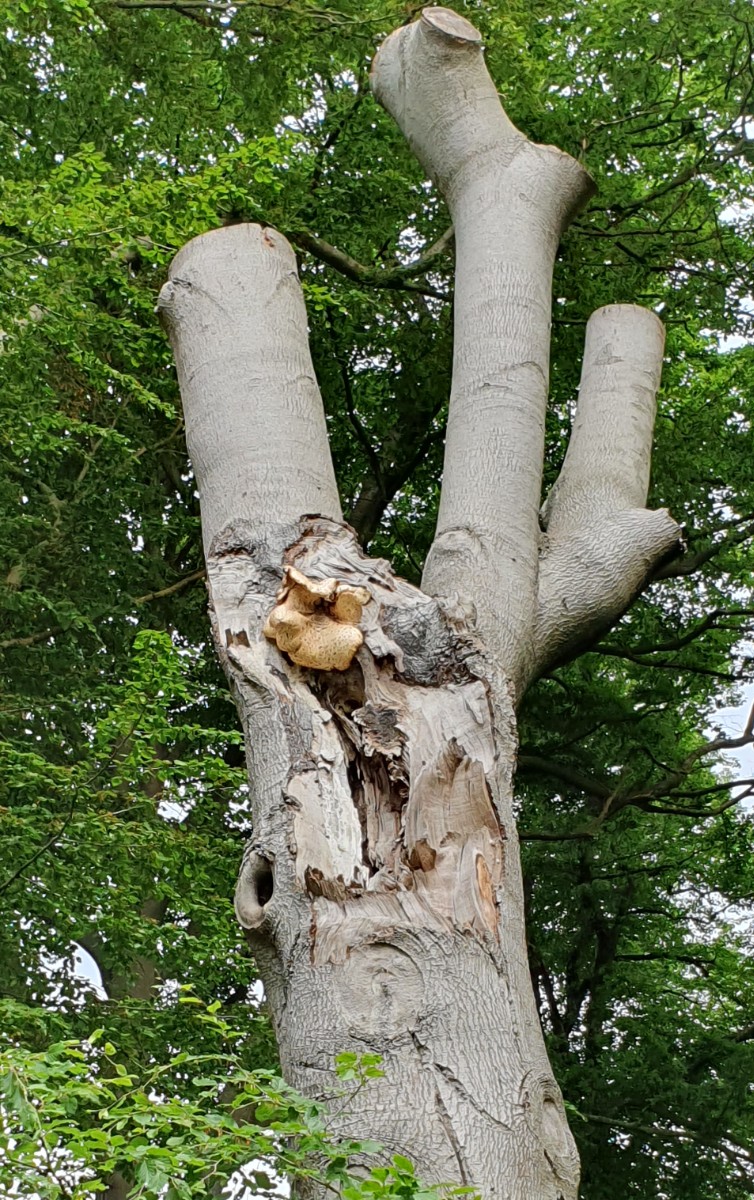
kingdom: Fungi
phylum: Basidiomycota
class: Agaricomycetes
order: Polyporales
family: Polyporaceae
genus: Cerioporus
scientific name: Cerioporus squamosus
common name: skællet stilkporesvamp
